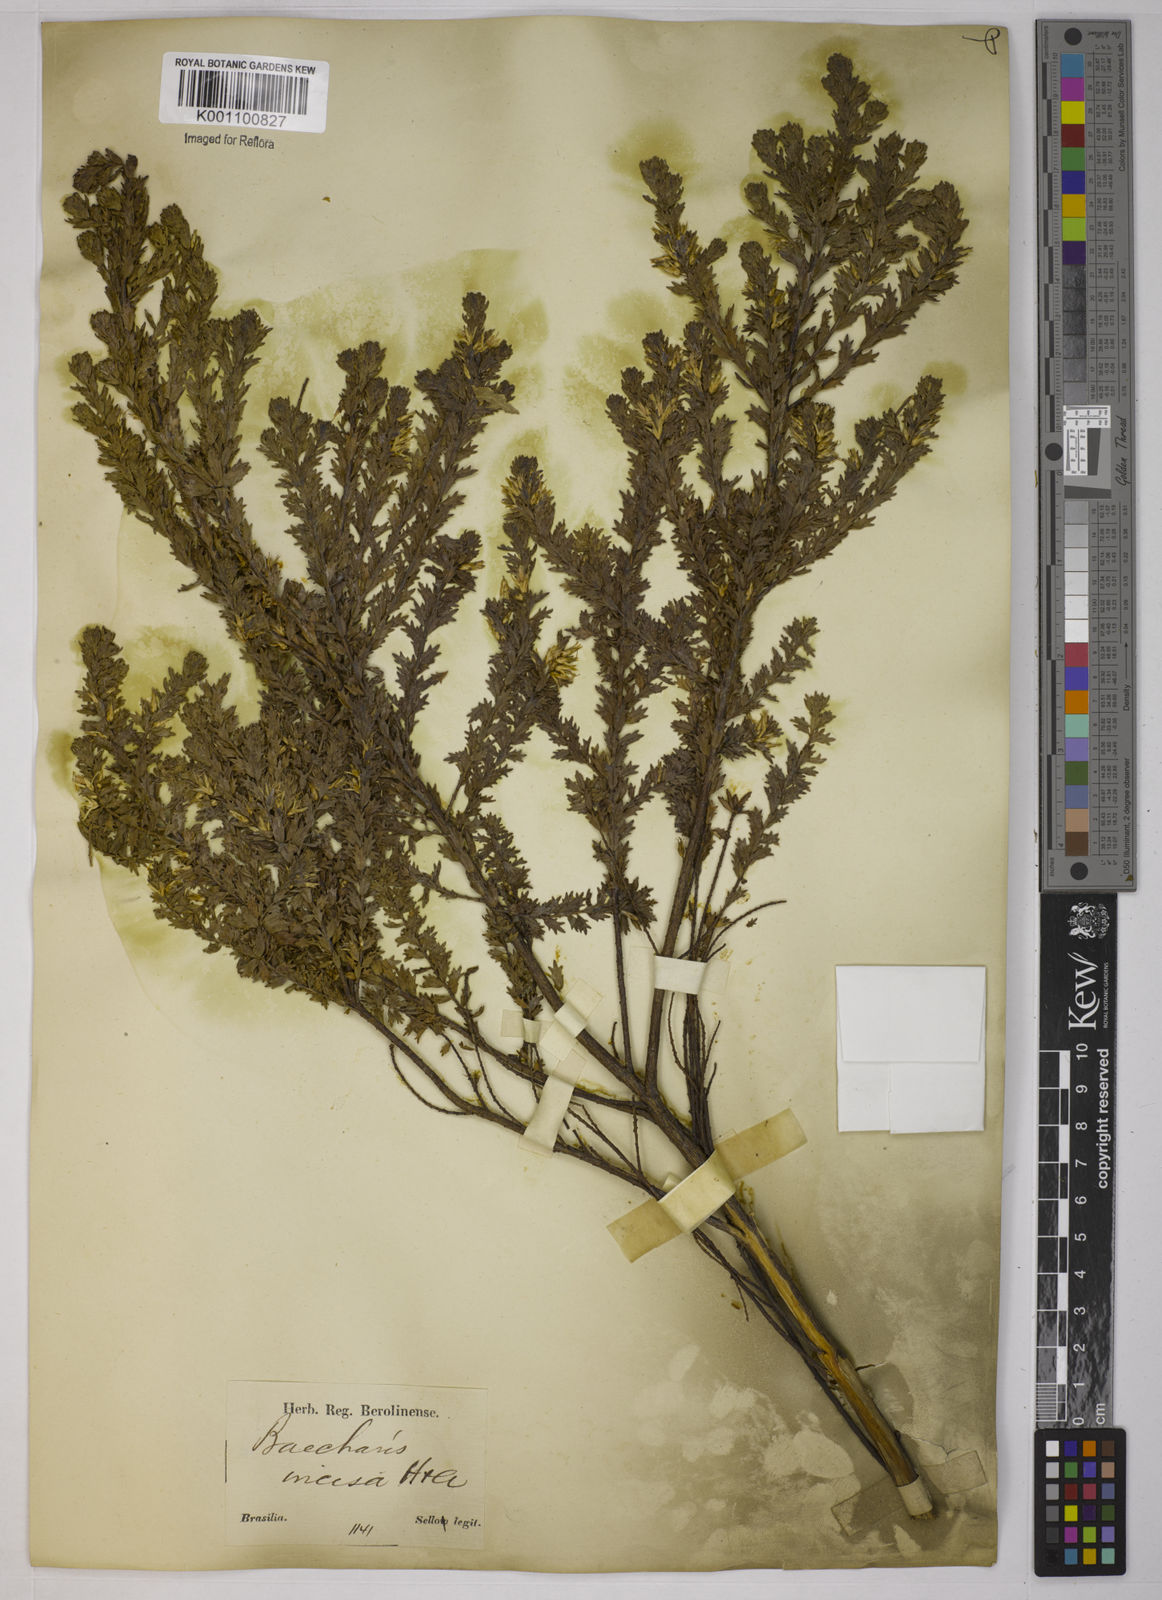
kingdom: Plantae
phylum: Tracheophyta
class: Magnoliopsida
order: Asterales
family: Asteraceae
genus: Baccharis
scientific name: Baccharis incisa
